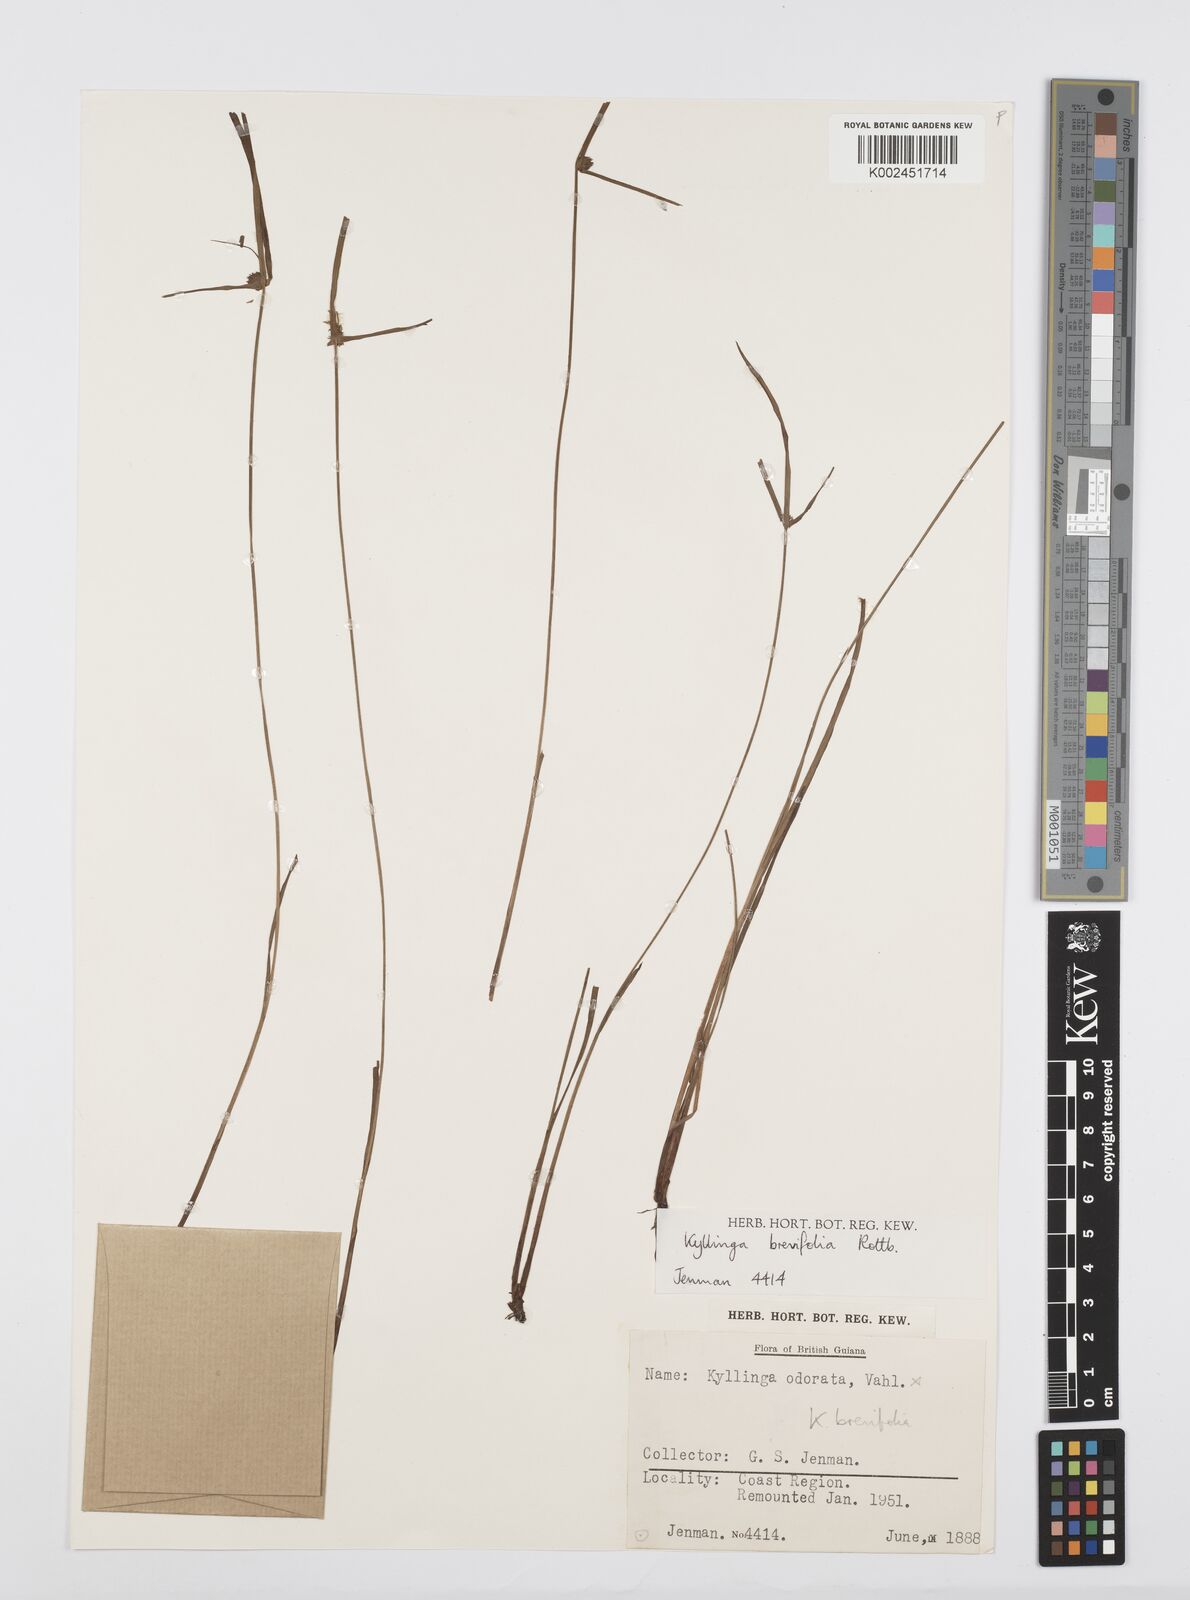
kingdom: Plantae
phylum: Tracheophyta
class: Liliopsida
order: Poales
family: Cyperaceae
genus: Cyperus
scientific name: Cyperus brevifolius
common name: Globe kyllinga
